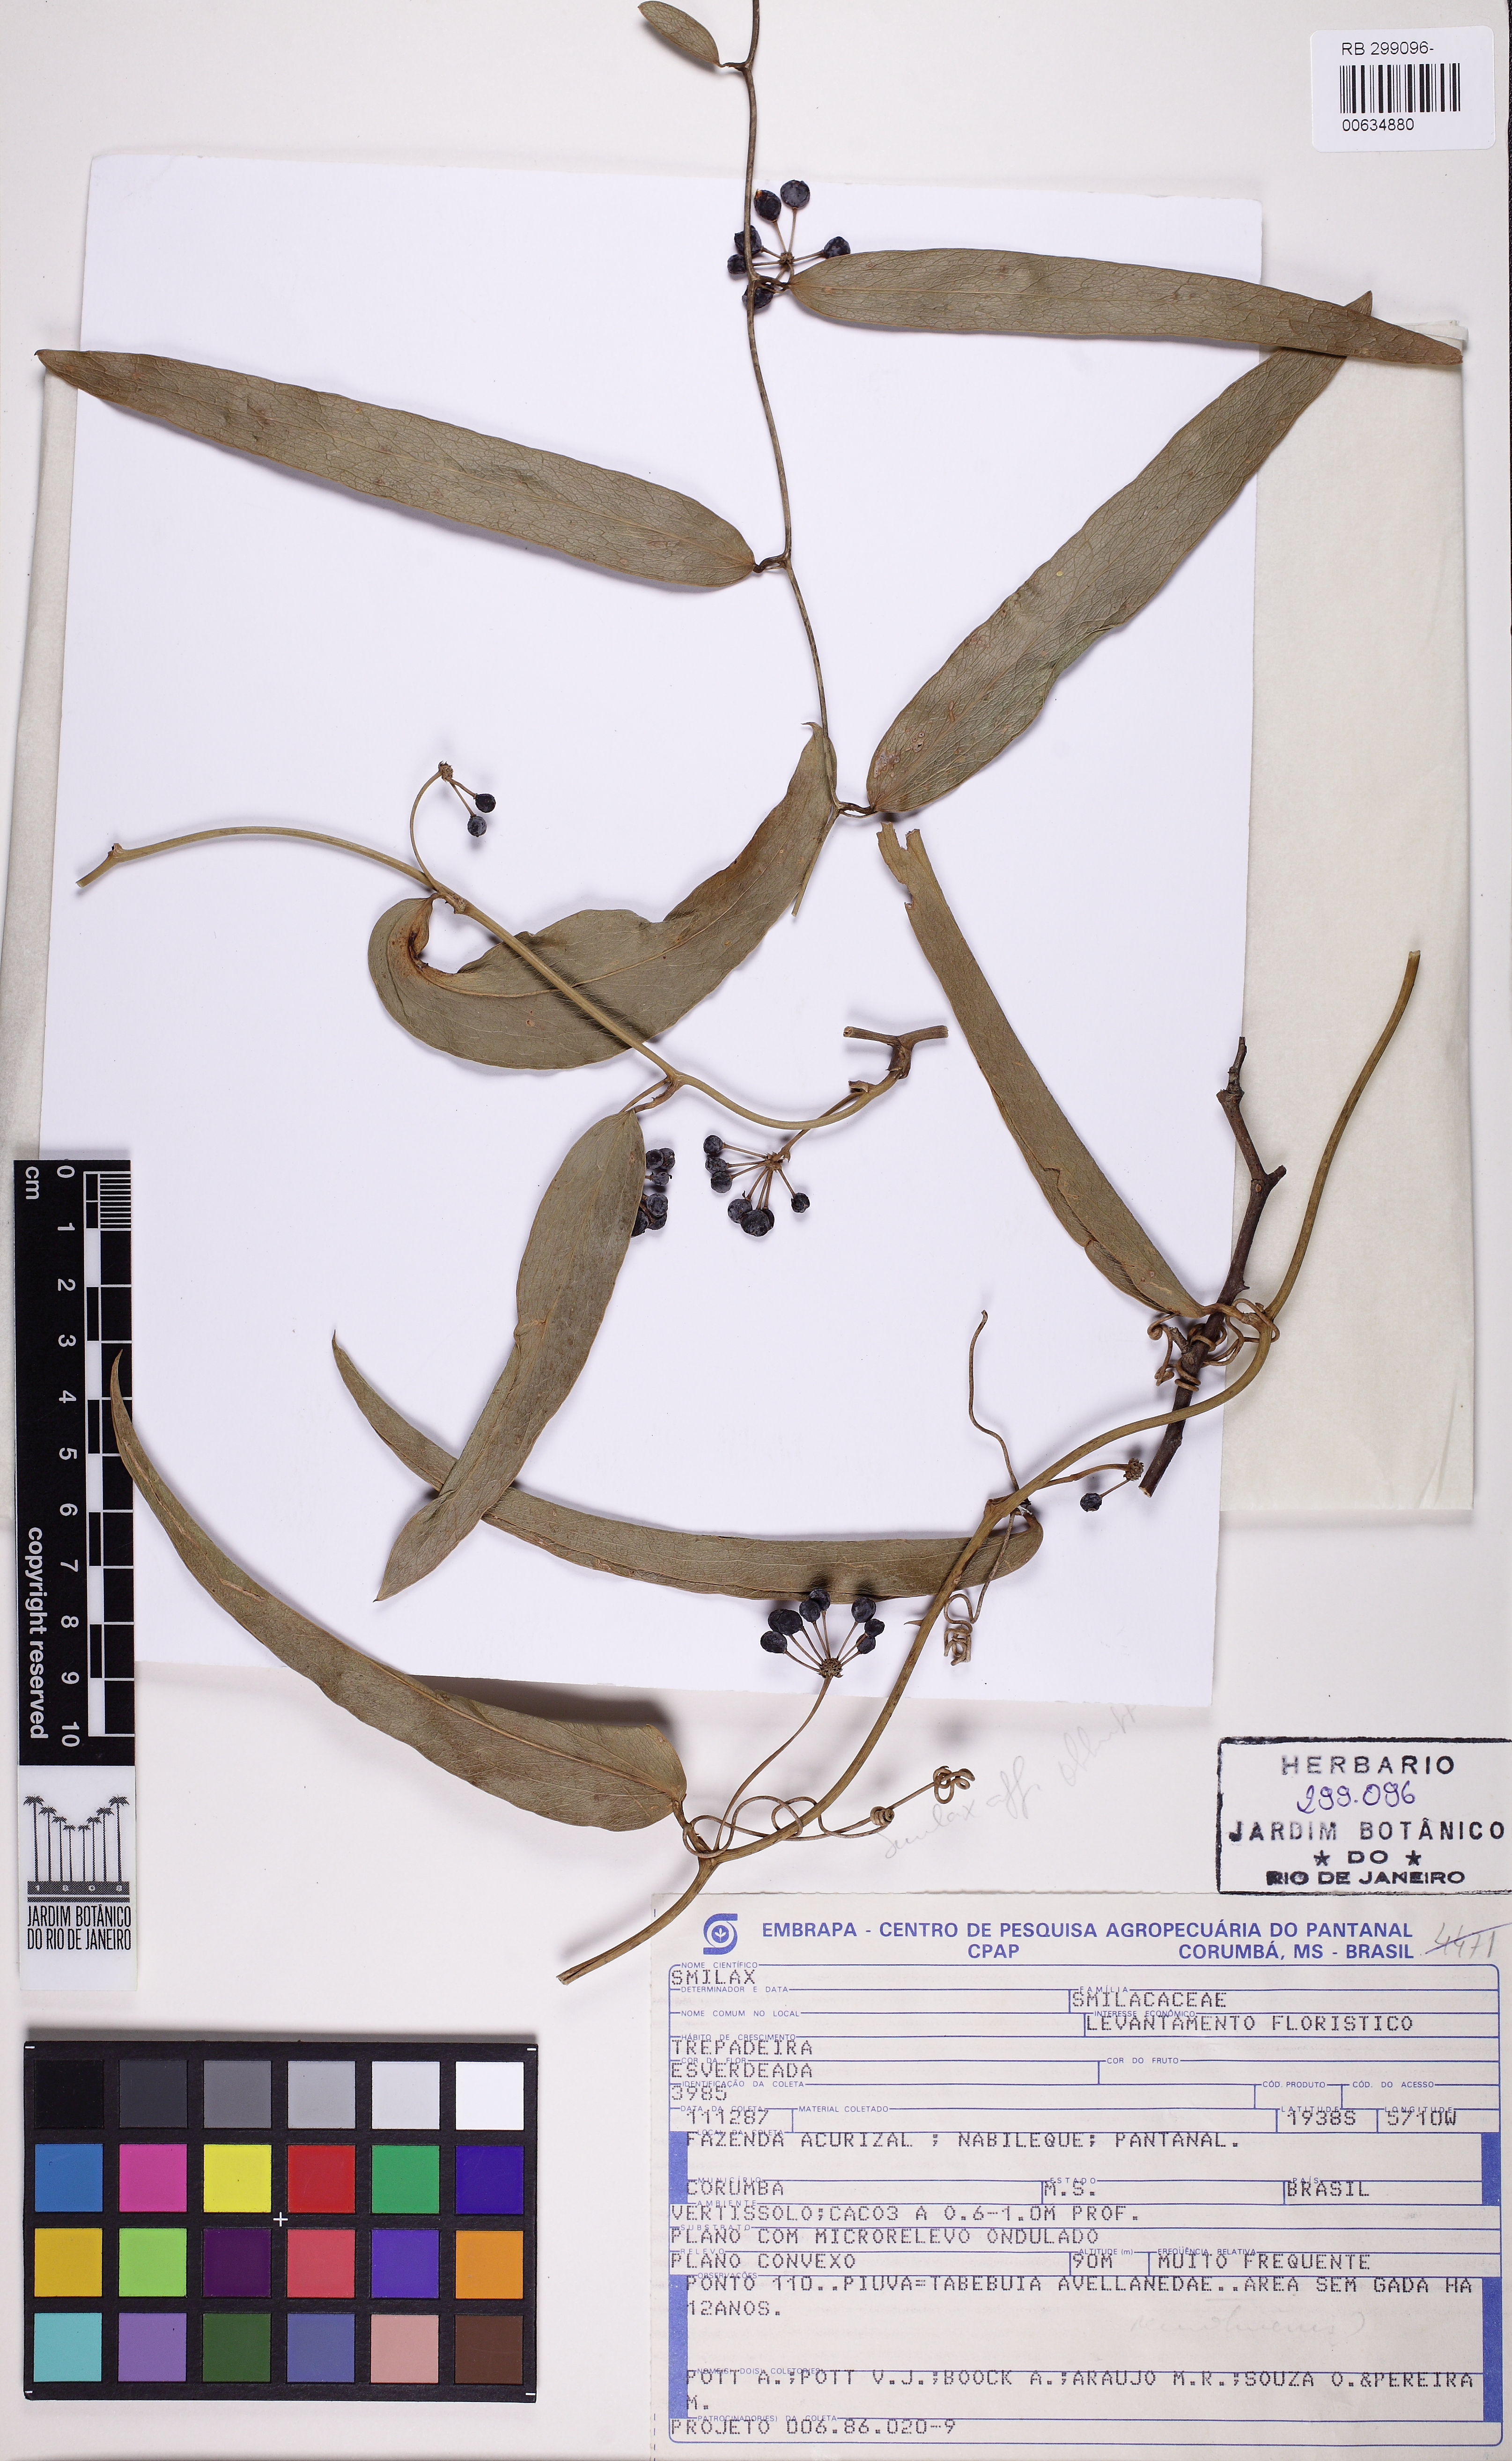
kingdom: Plantae
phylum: Tracheophyta
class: Liliopsida
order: Liliales
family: Smilacaceae
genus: Smilax
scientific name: Smilax
